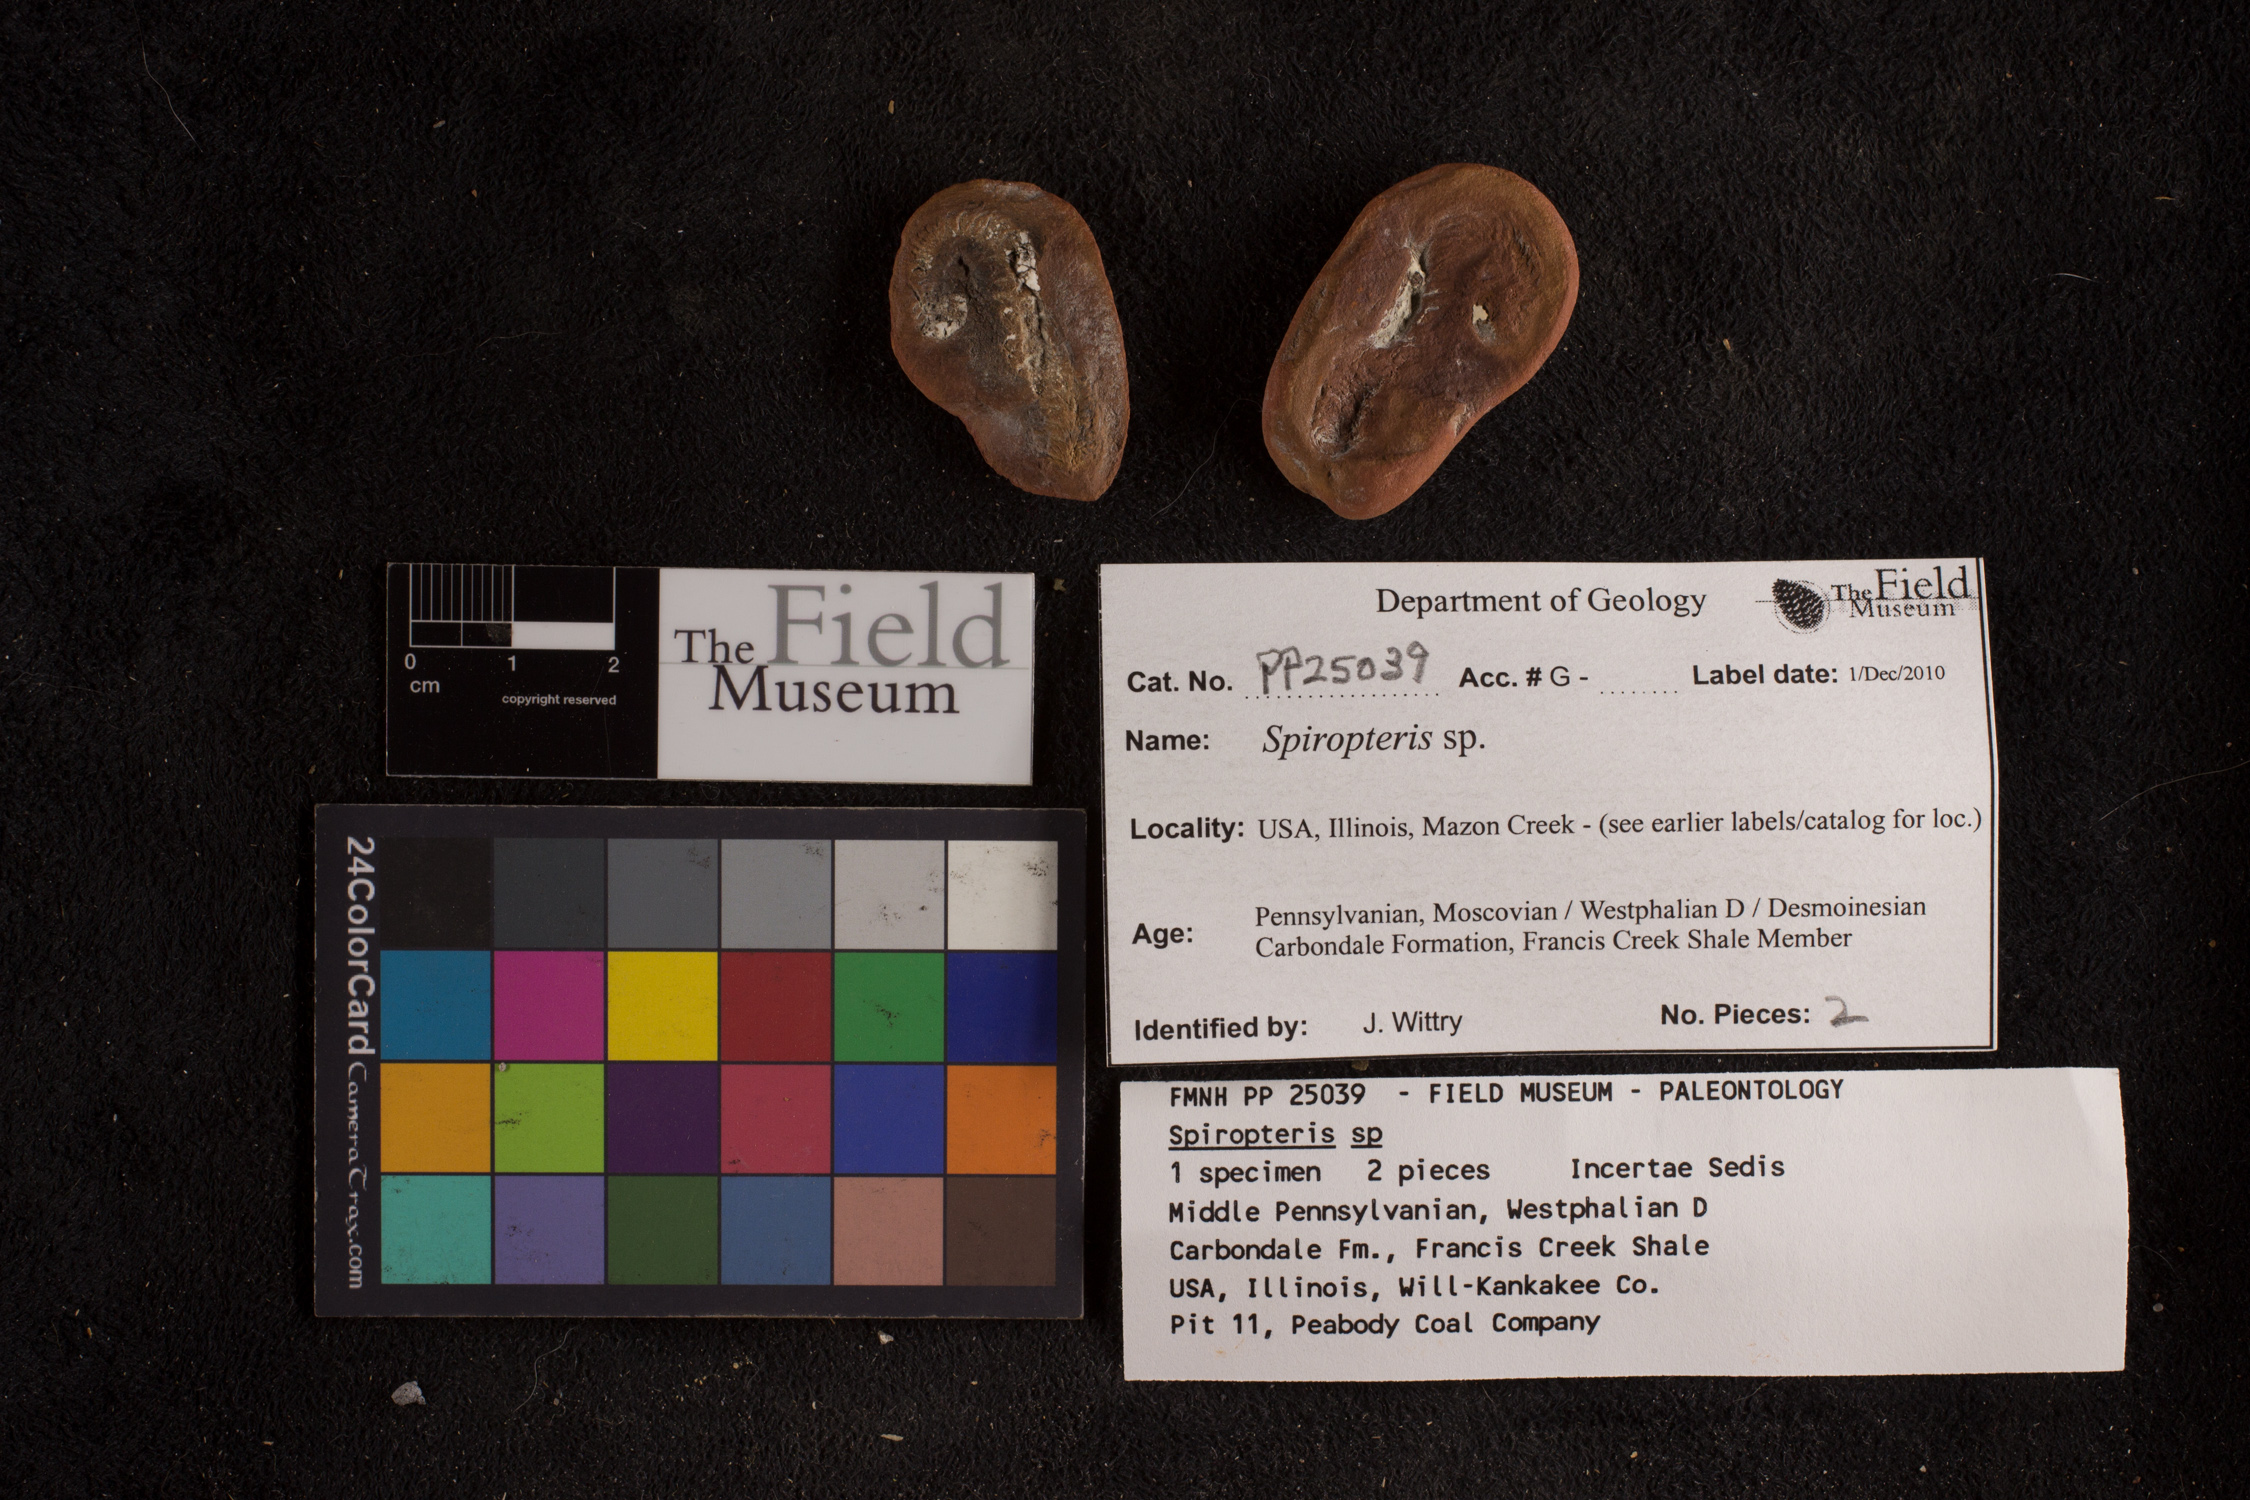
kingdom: Plantae
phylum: Tracheophyta
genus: Spiropteris
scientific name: Spiropteris
